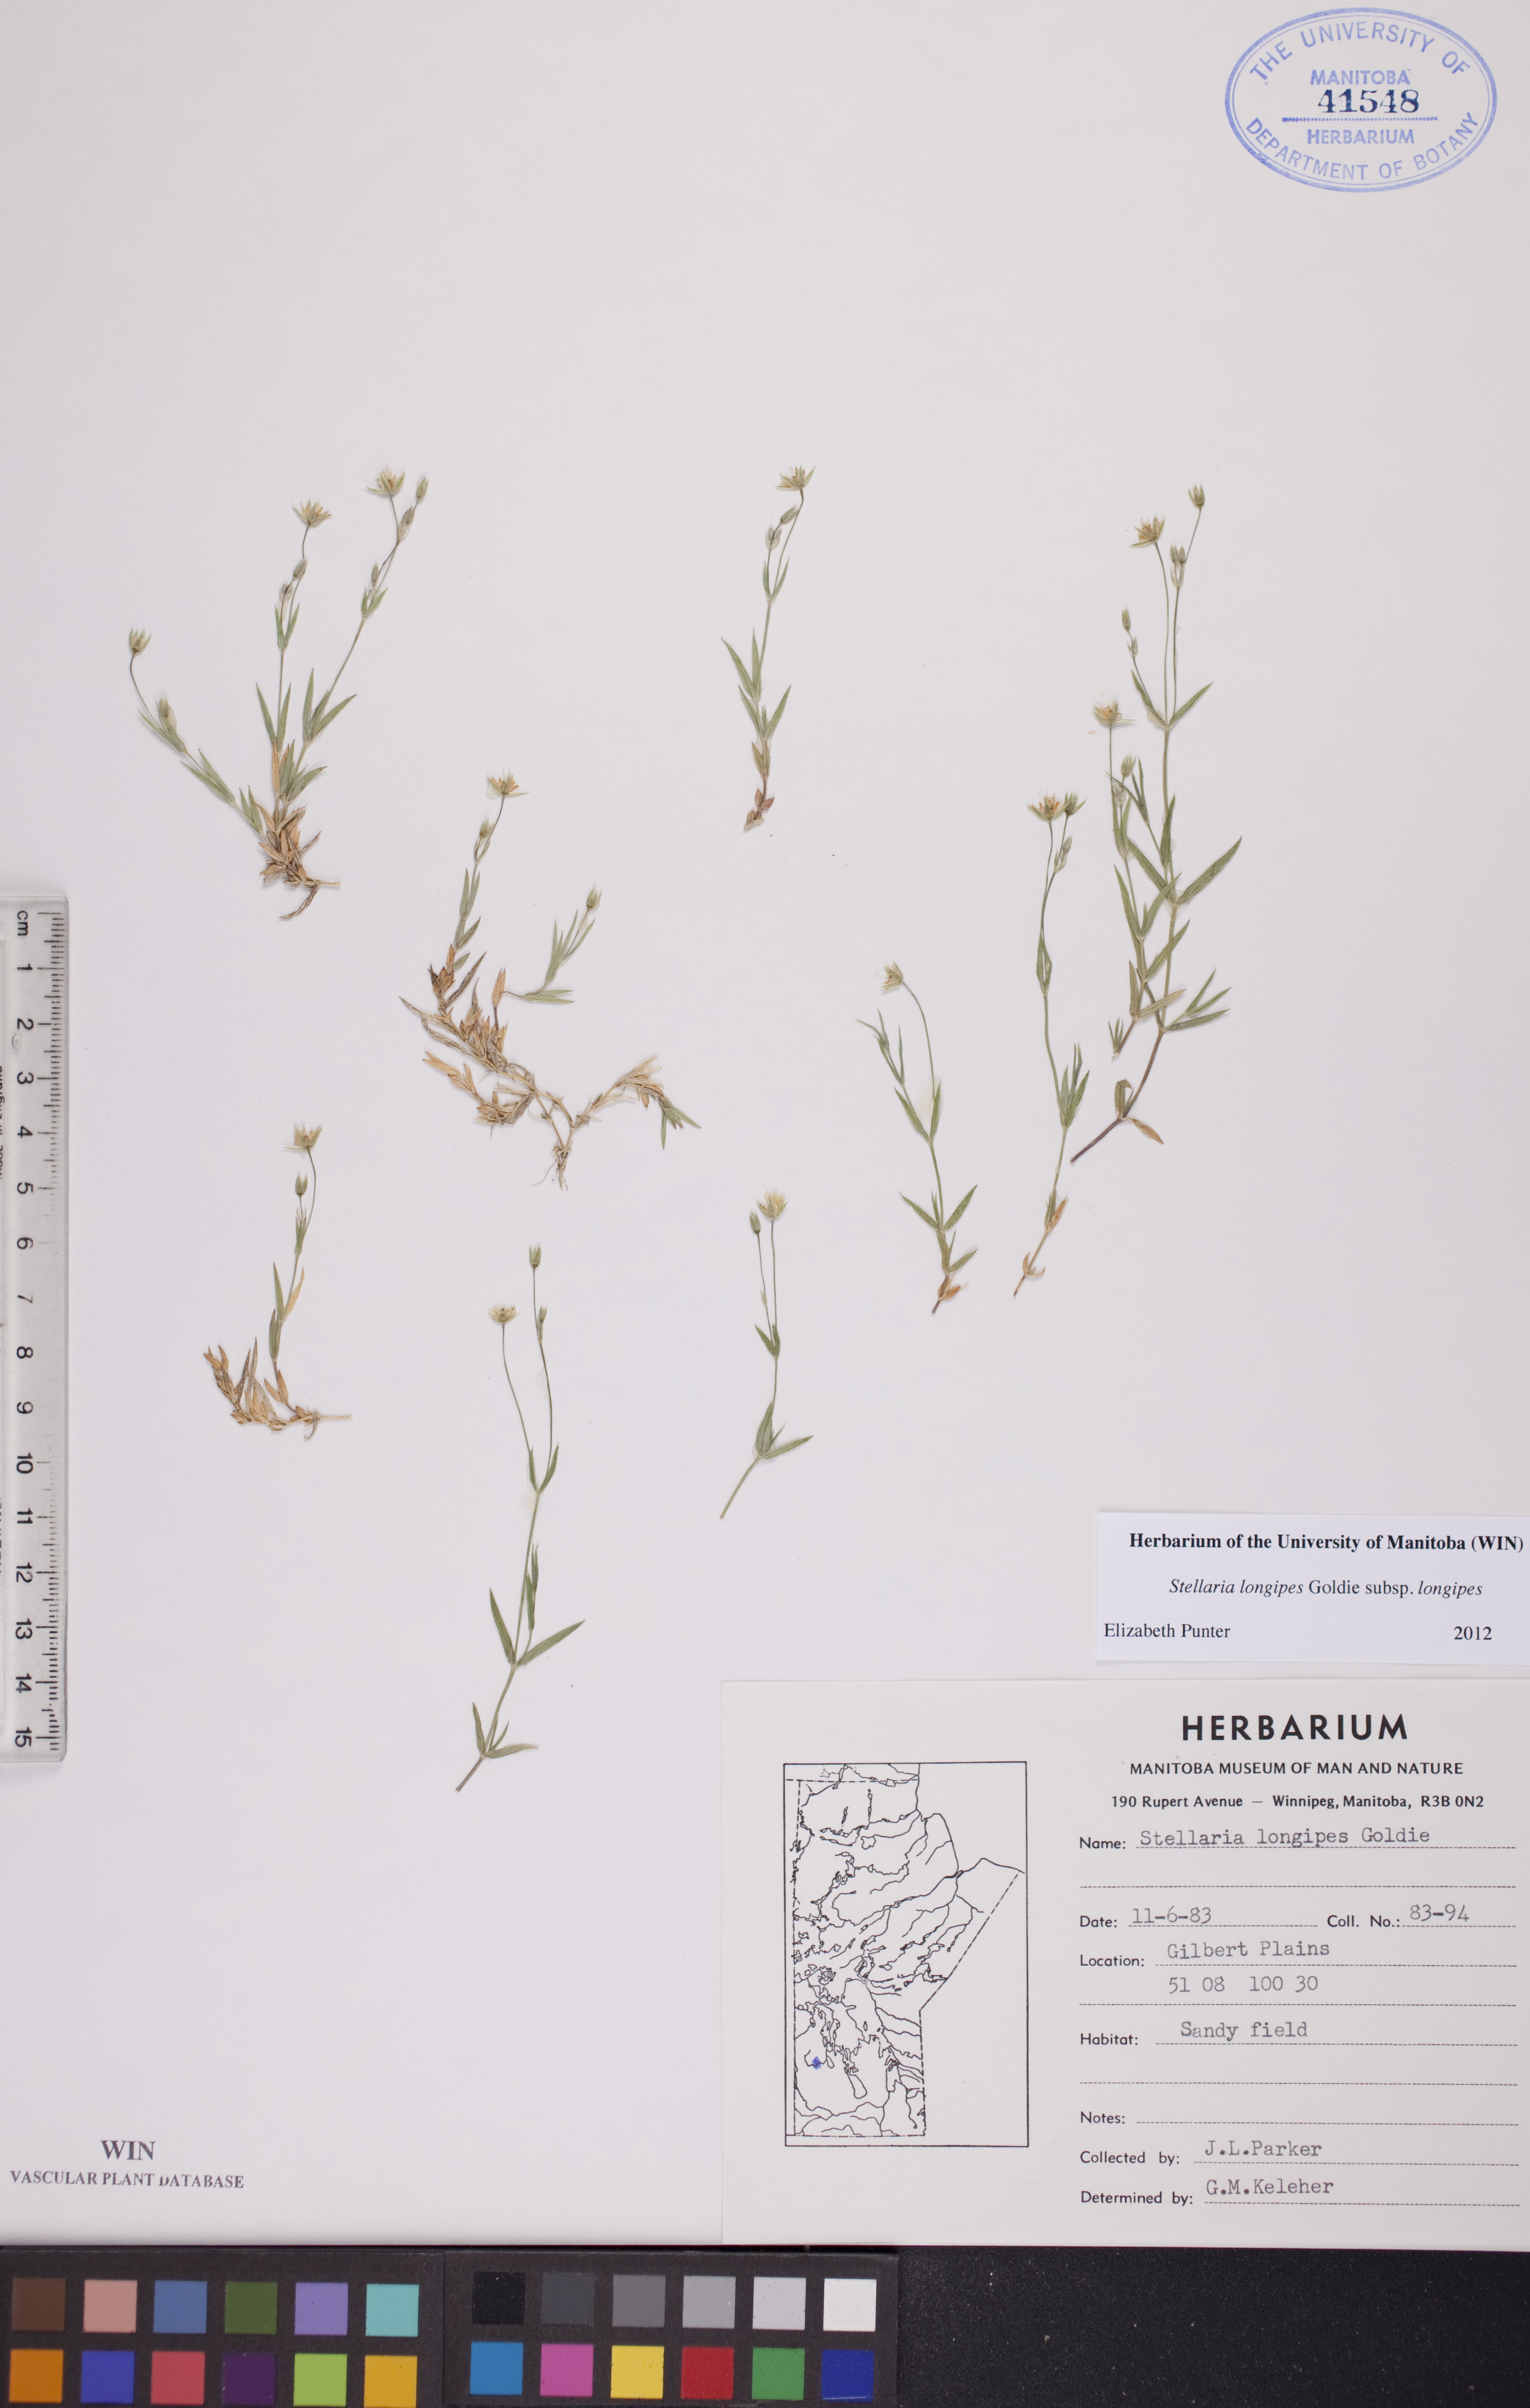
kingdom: Plantae
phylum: Tracheophyta
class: Magnoliopsida
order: Caryophyllales
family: Caryophyllaceae
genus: Stellaria
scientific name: Stellaria longipes
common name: Goldie's starwort
